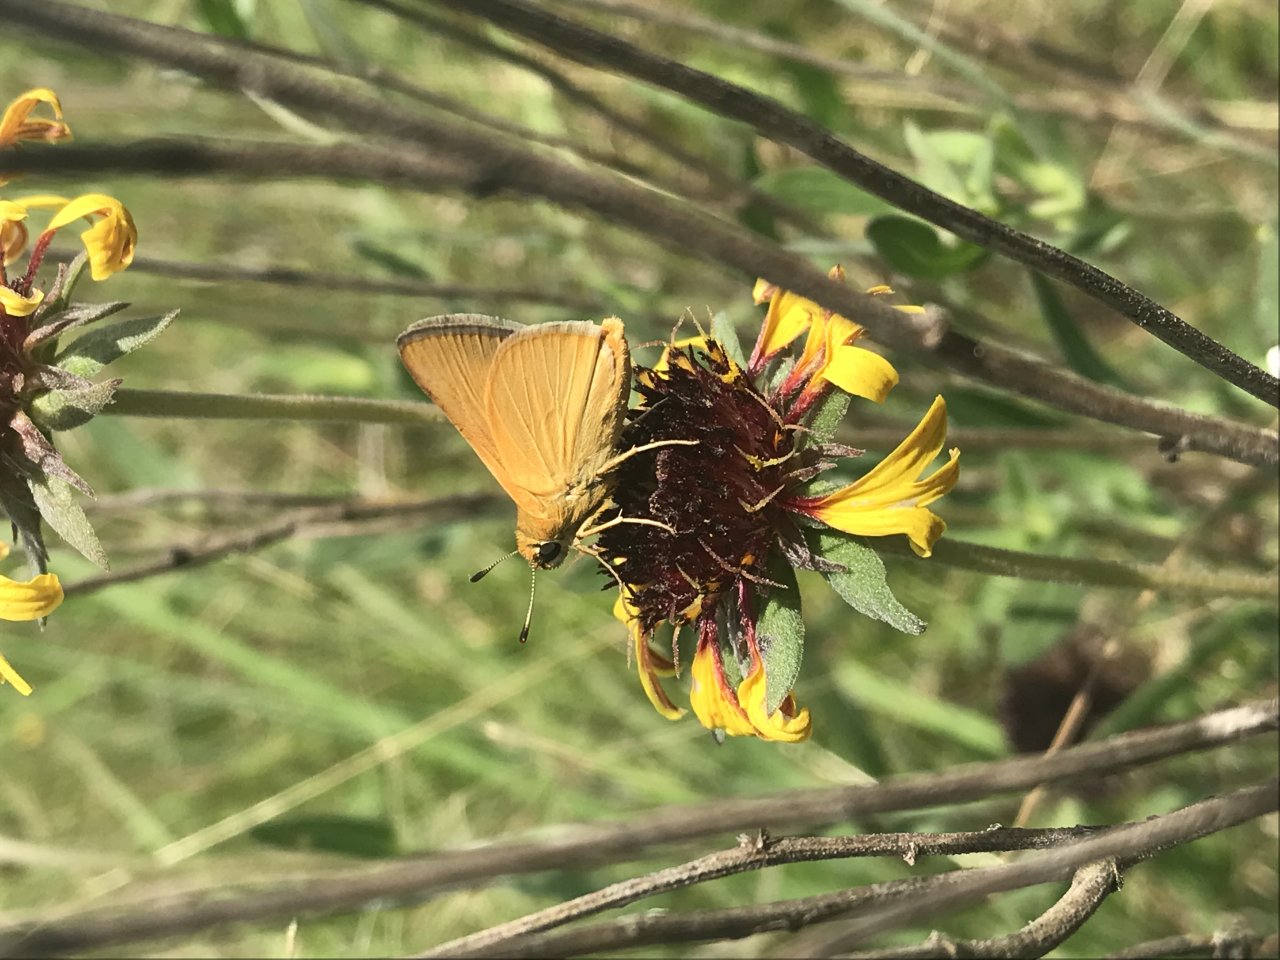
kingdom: Animalia
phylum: Arthropoda
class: Insecta
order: Lepidoptera
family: Hesperiidae
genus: Atrytone
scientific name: Atrytone arogos
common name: Arogos Skipper
